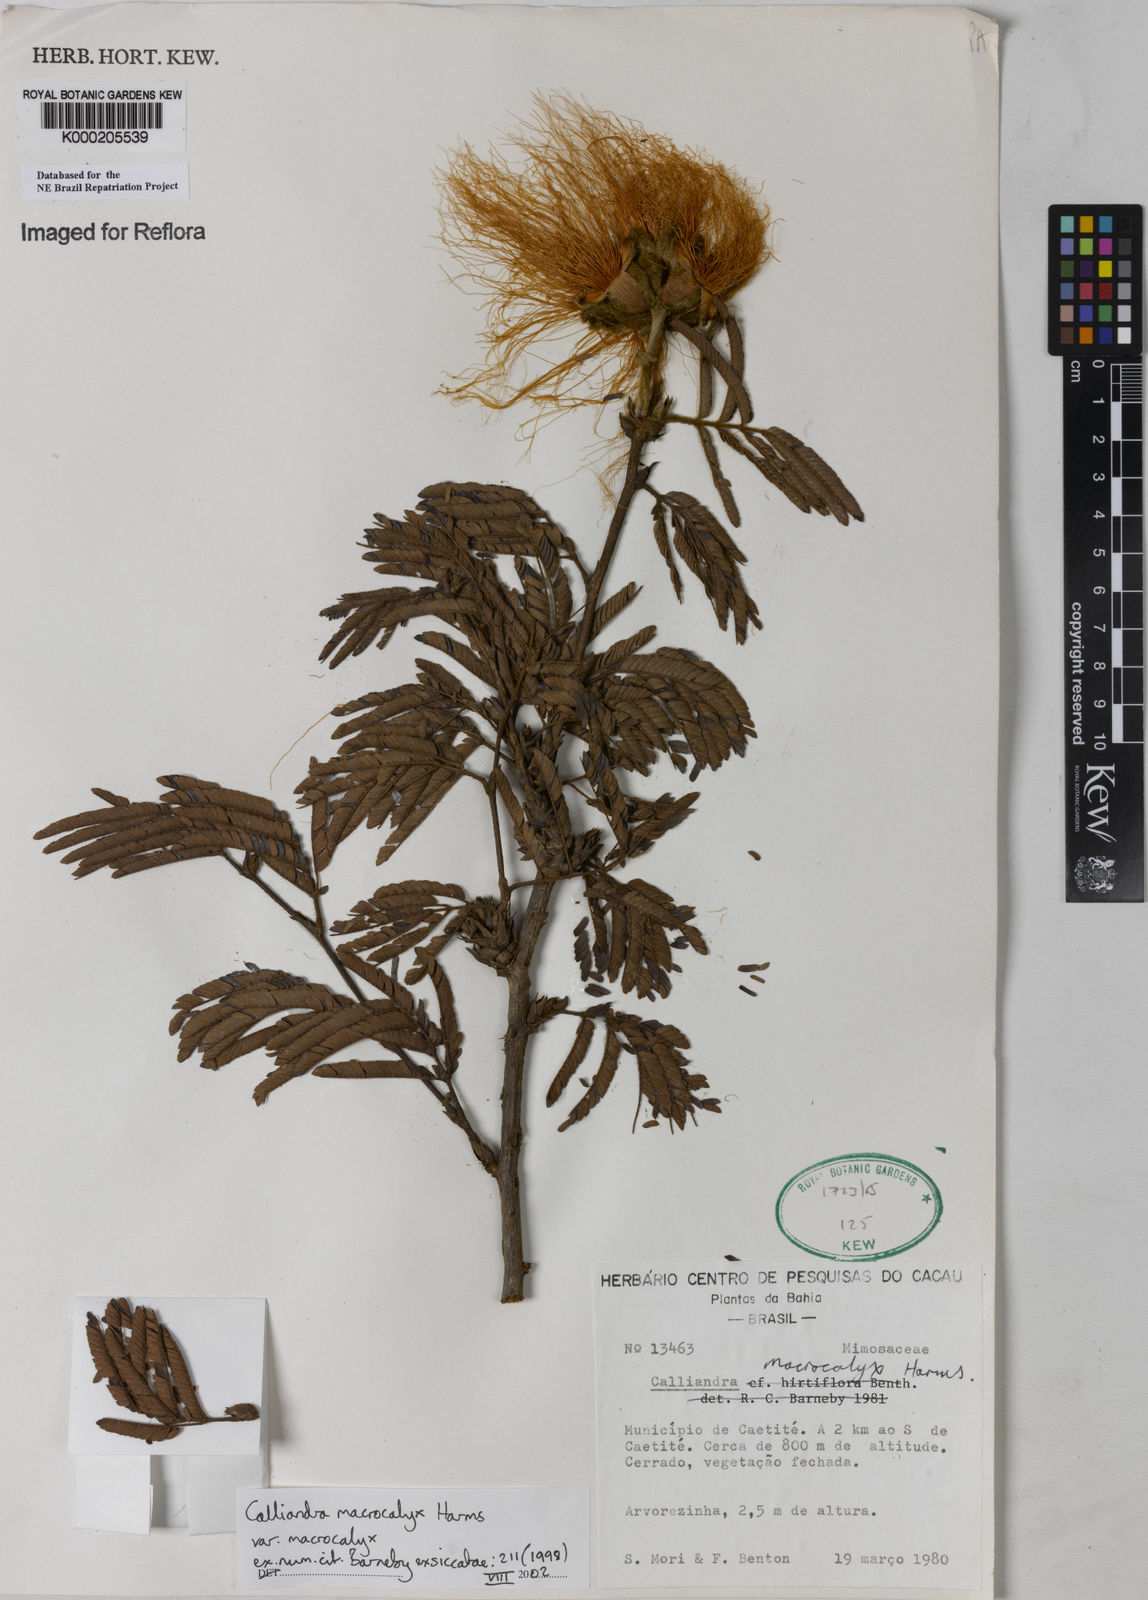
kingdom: Plantae
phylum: Tracheophyta
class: Magnoliopsida
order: Fabales
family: Fabaceae
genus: Calliandra
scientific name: Calliandra macrocalyx
